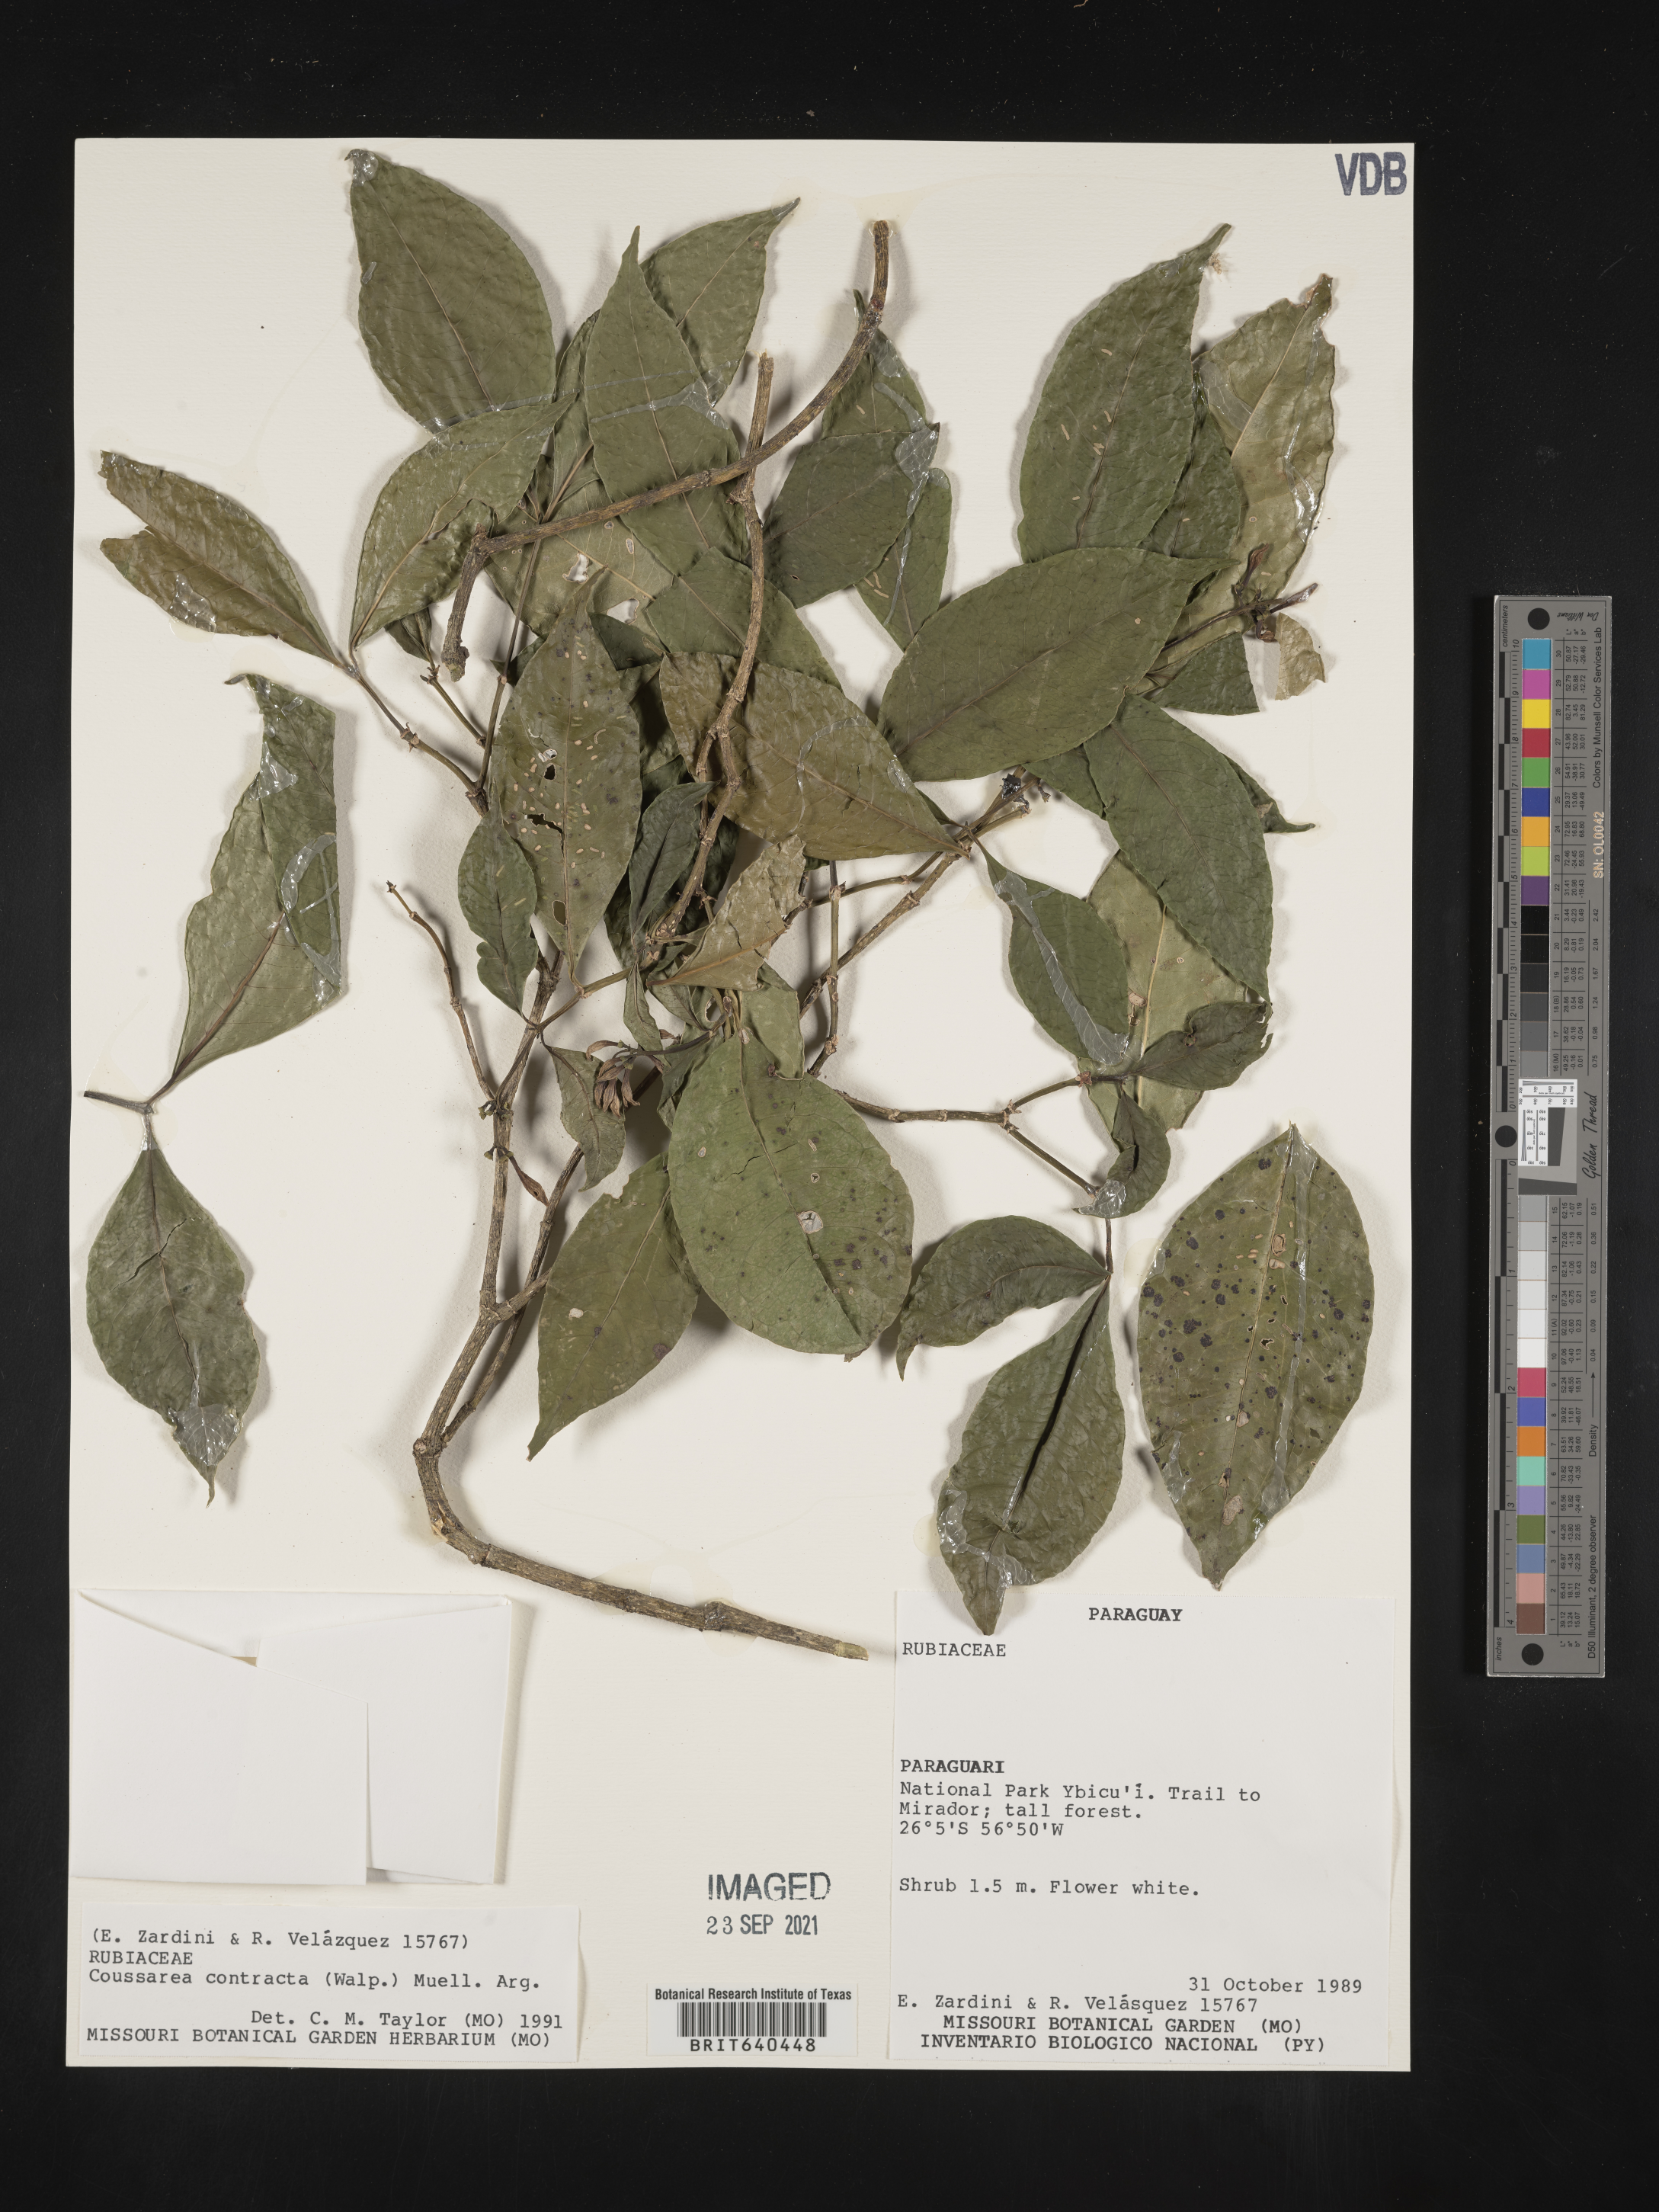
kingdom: Plantae
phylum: Tracheophyta
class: Magnoliopsida
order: Gentianales
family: Rubiaceae
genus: Coussarea
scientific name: Coussarea
